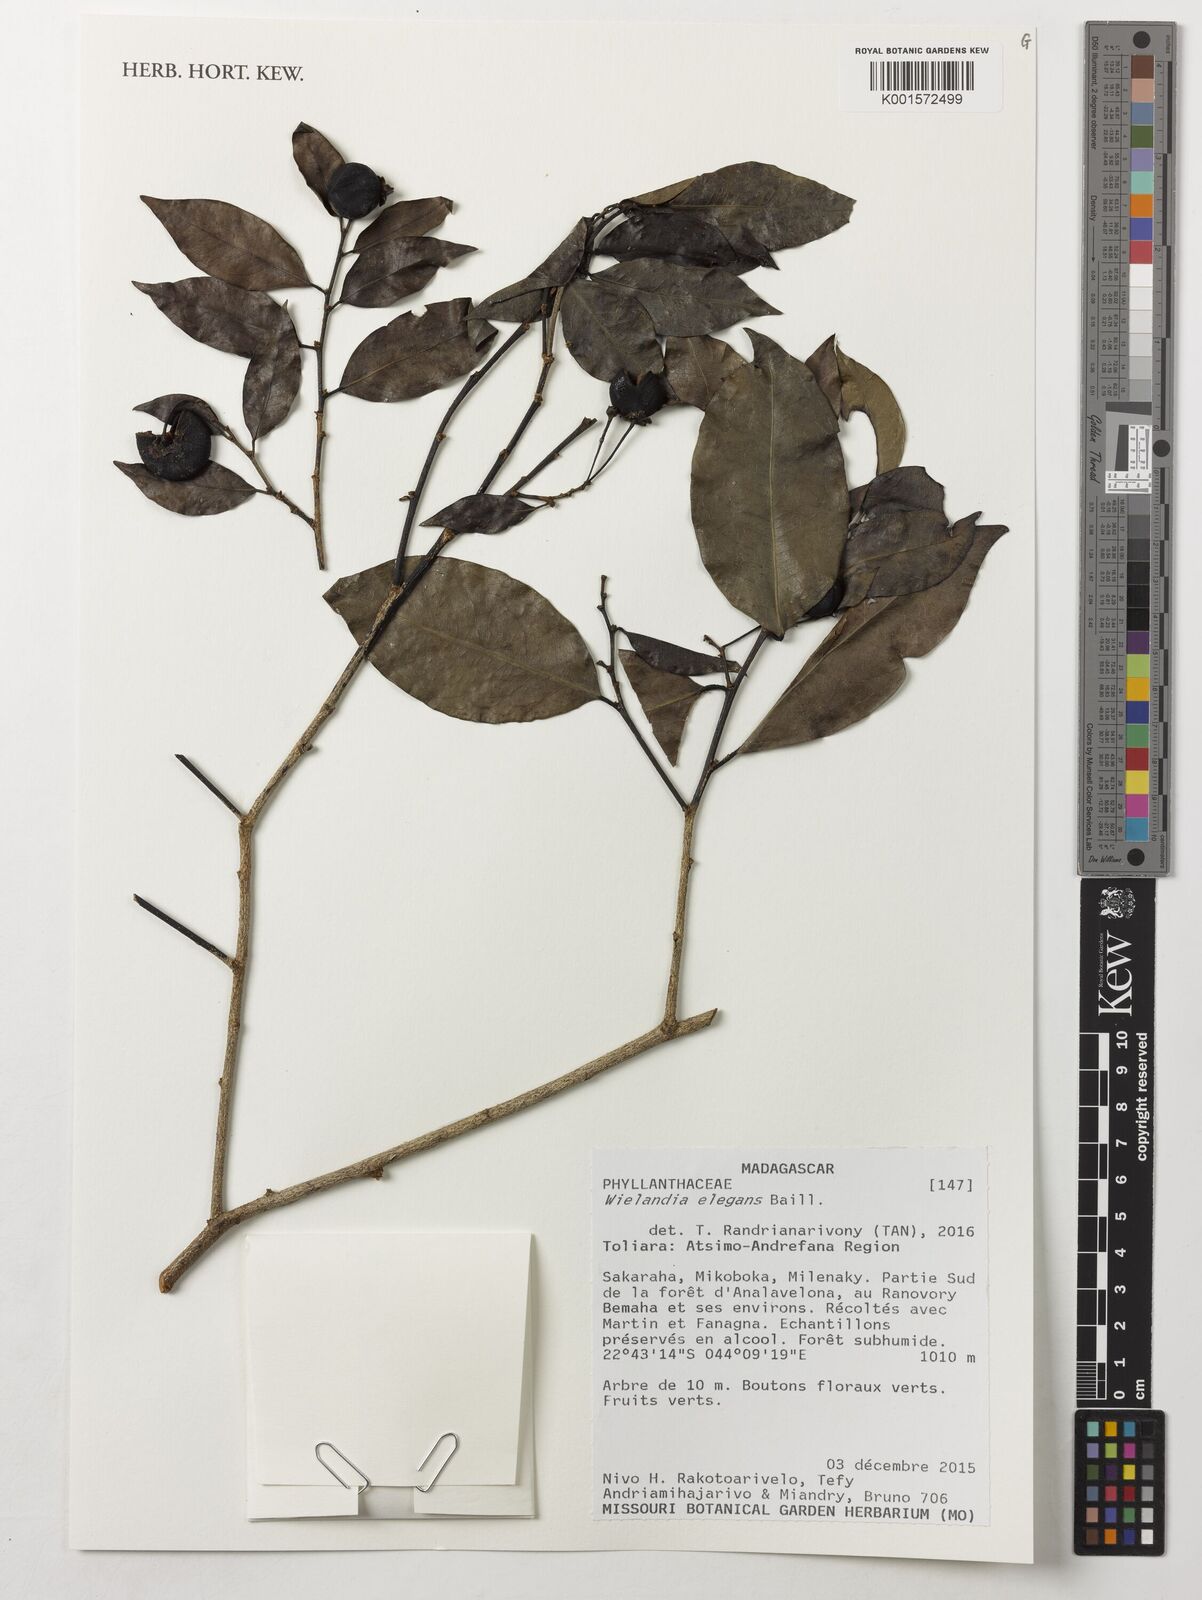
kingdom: Plantae
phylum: Tracheophyta
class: Magnoliopsida
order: Malpighiales
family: Phyllanthaceae
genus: Wielandia
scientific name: Wielandia elegans
